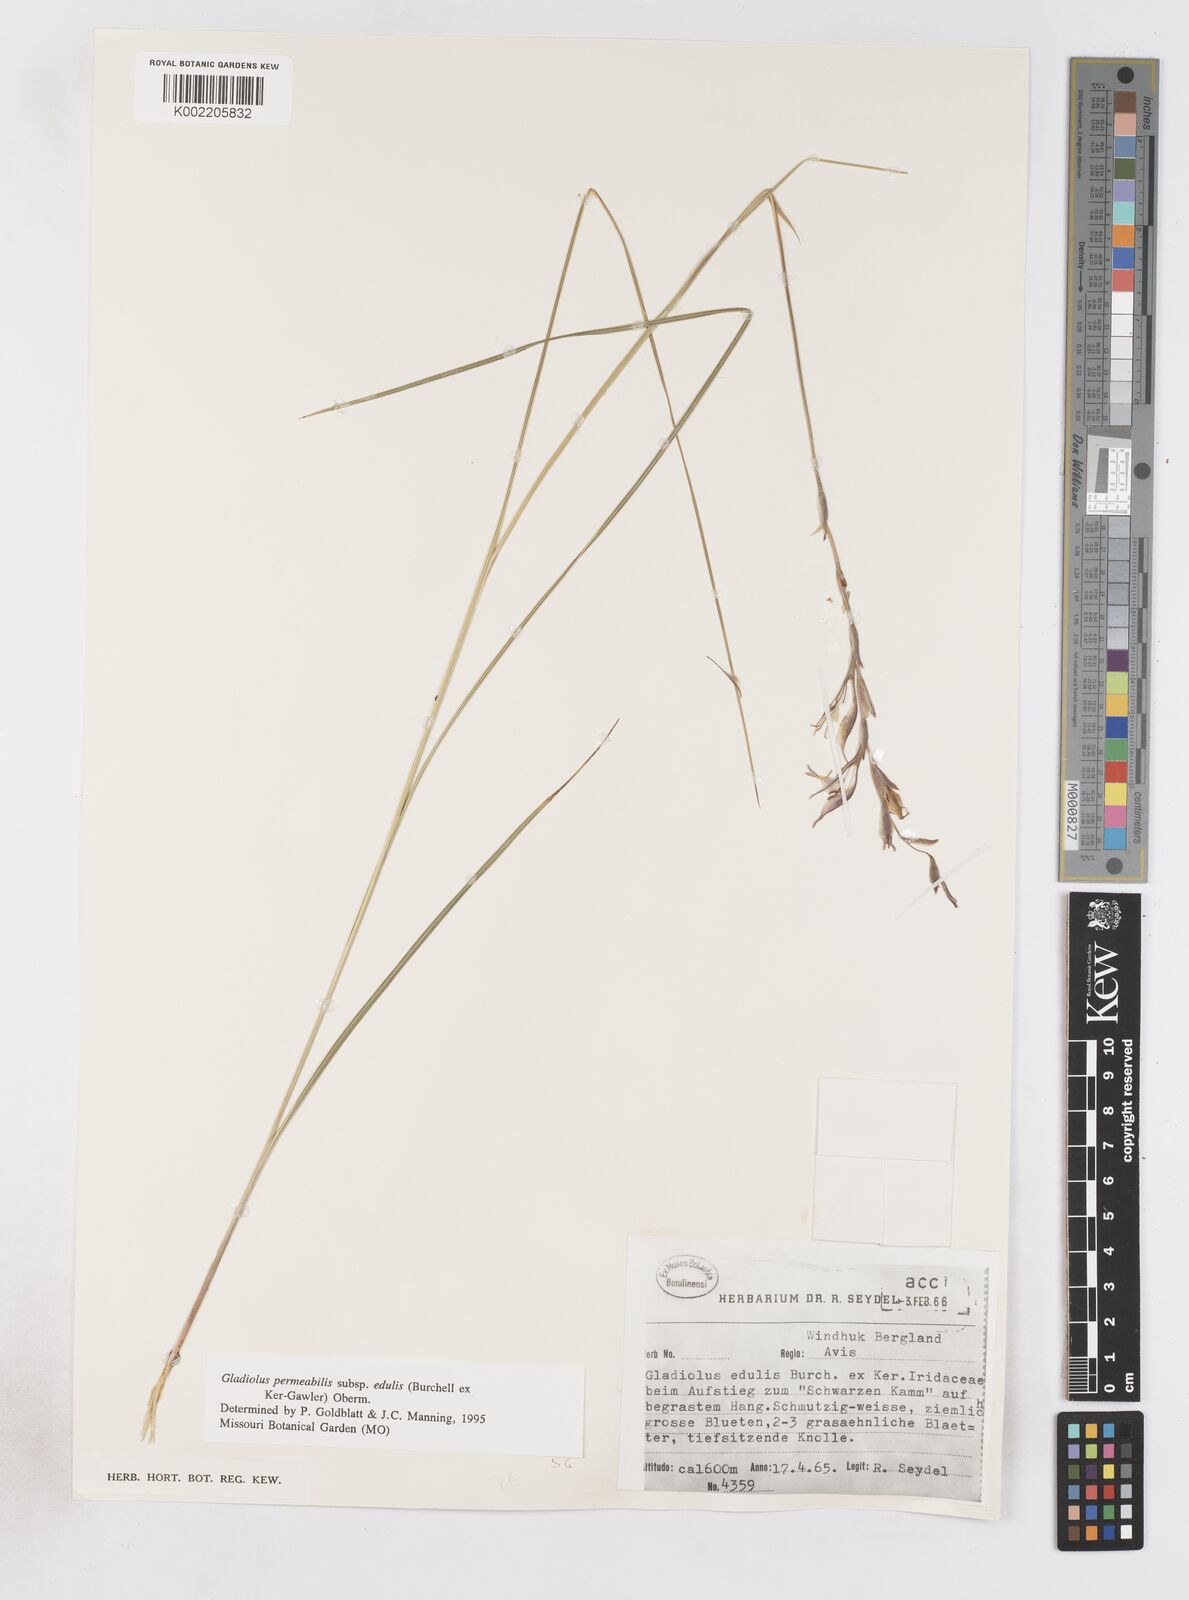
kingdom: Plantae
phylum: Tracheophyta
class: Liliopsida
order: Asparagales
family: Iridaceae
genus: Gladiolus
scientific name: Gladiolus permeabilis
